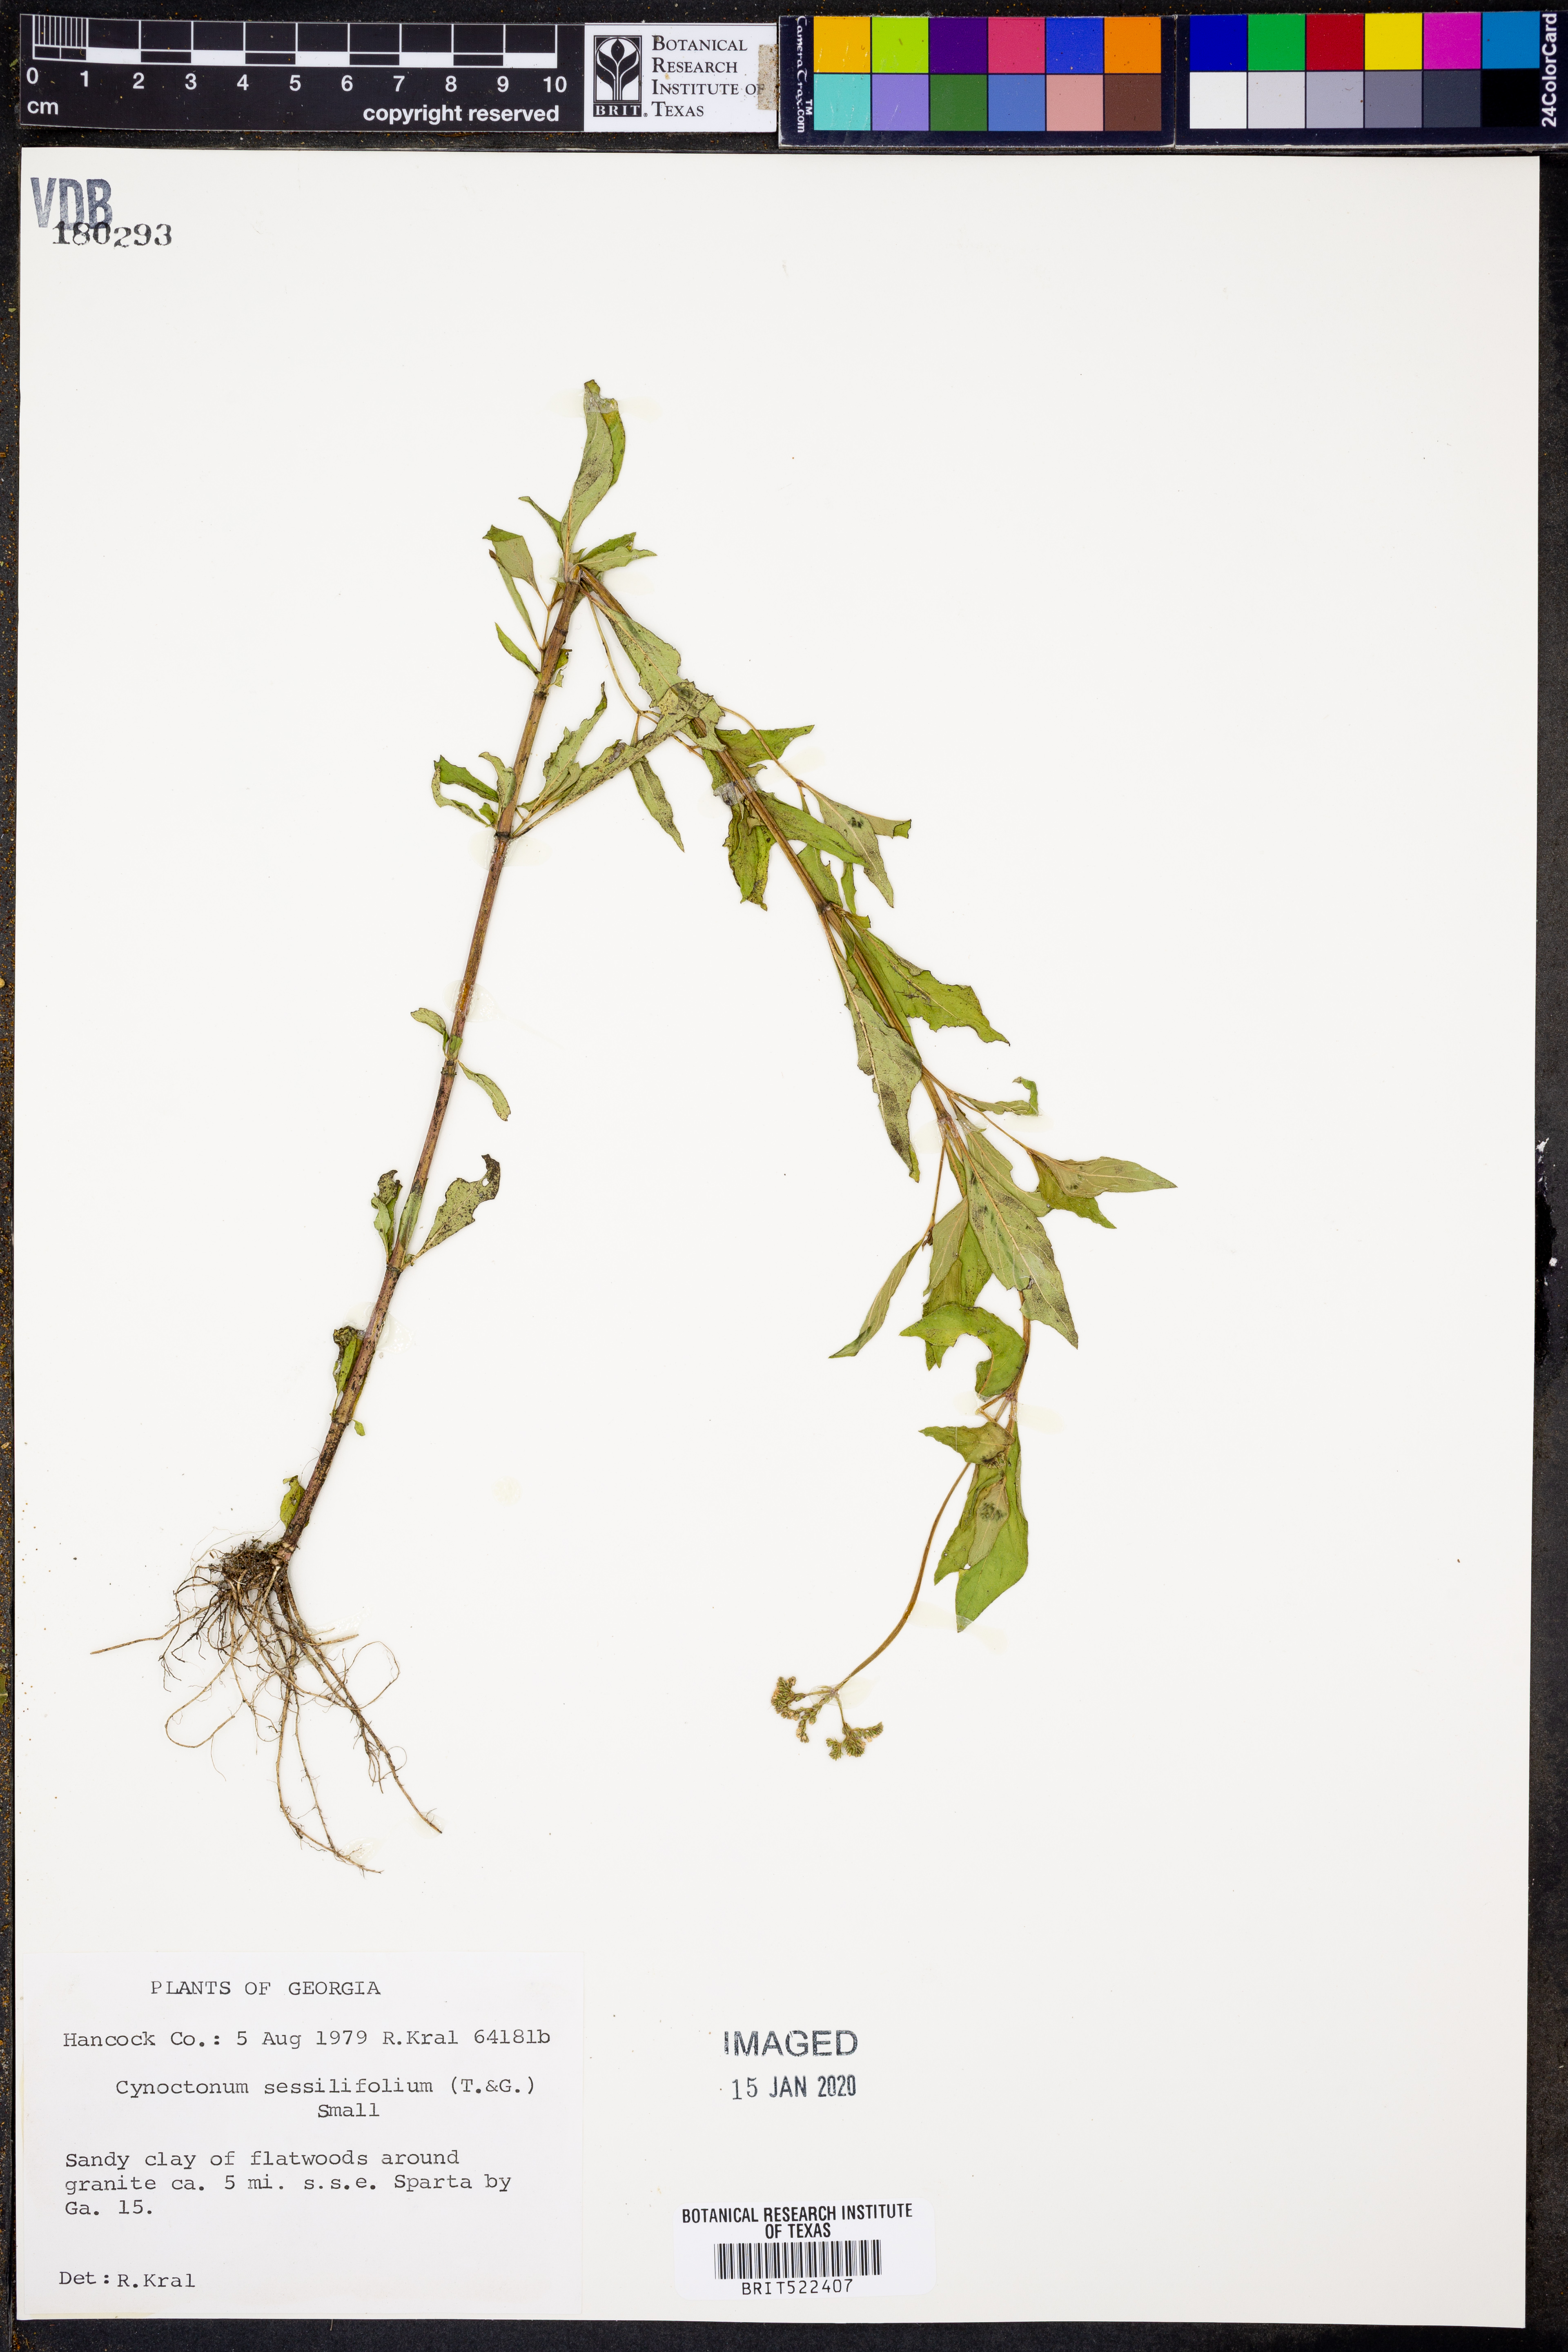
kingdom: Plantae
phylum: Tracheophyta
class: Magnoliopsida
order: Gentianales
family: Loganiaceae
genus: Mitreola
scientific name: Mitreola sessilifolia
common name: Swamp hornpod
